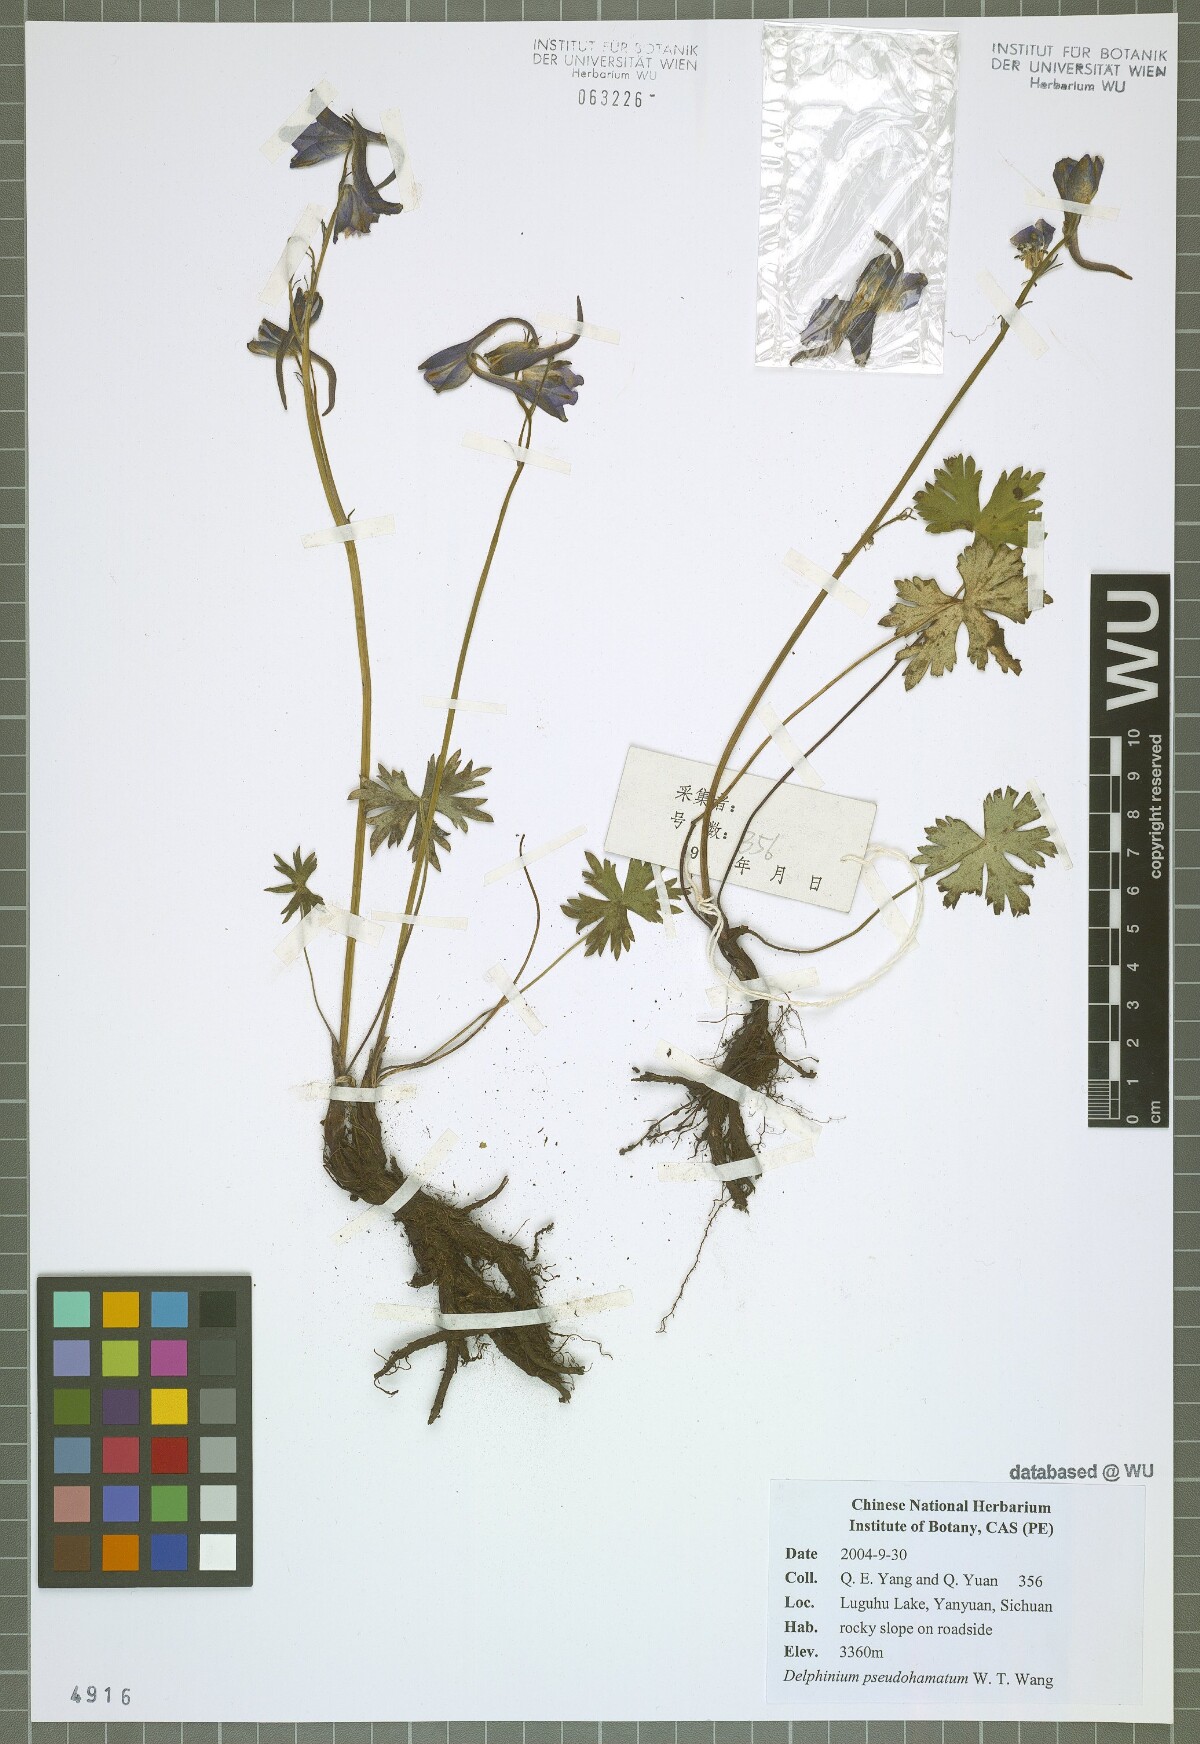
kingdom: Plantae
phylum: Tracheophyta
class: Magnoliopsida
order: Ranunculales
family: Ranunculaceae
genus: Delphinium
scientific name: Delphinium pseudohamatum
